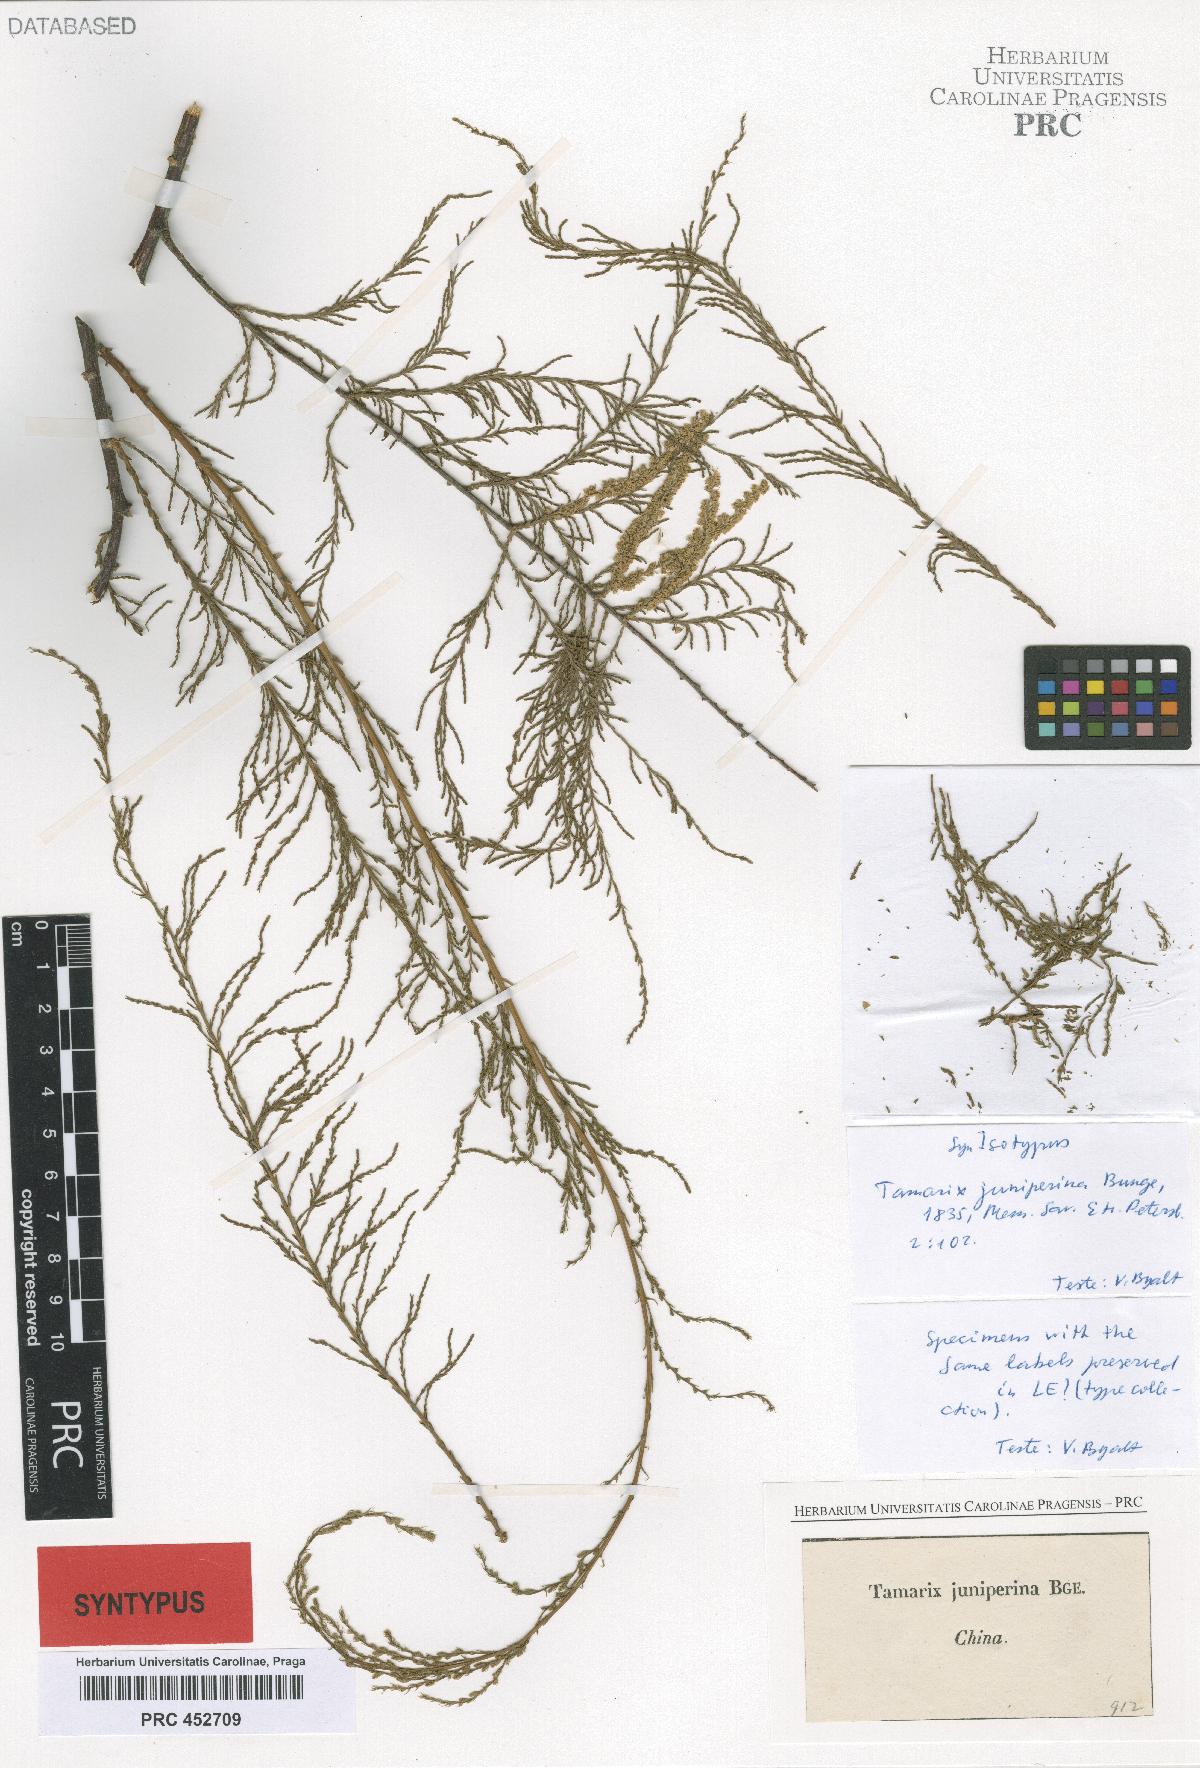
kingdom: Plantae
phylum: Tracheophyta
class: Magnoliopsida
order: Caryophyllales
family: Tamaricaceae
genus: Tamarix
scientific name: Tamarix chinensis
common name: Chinese tamarisk
